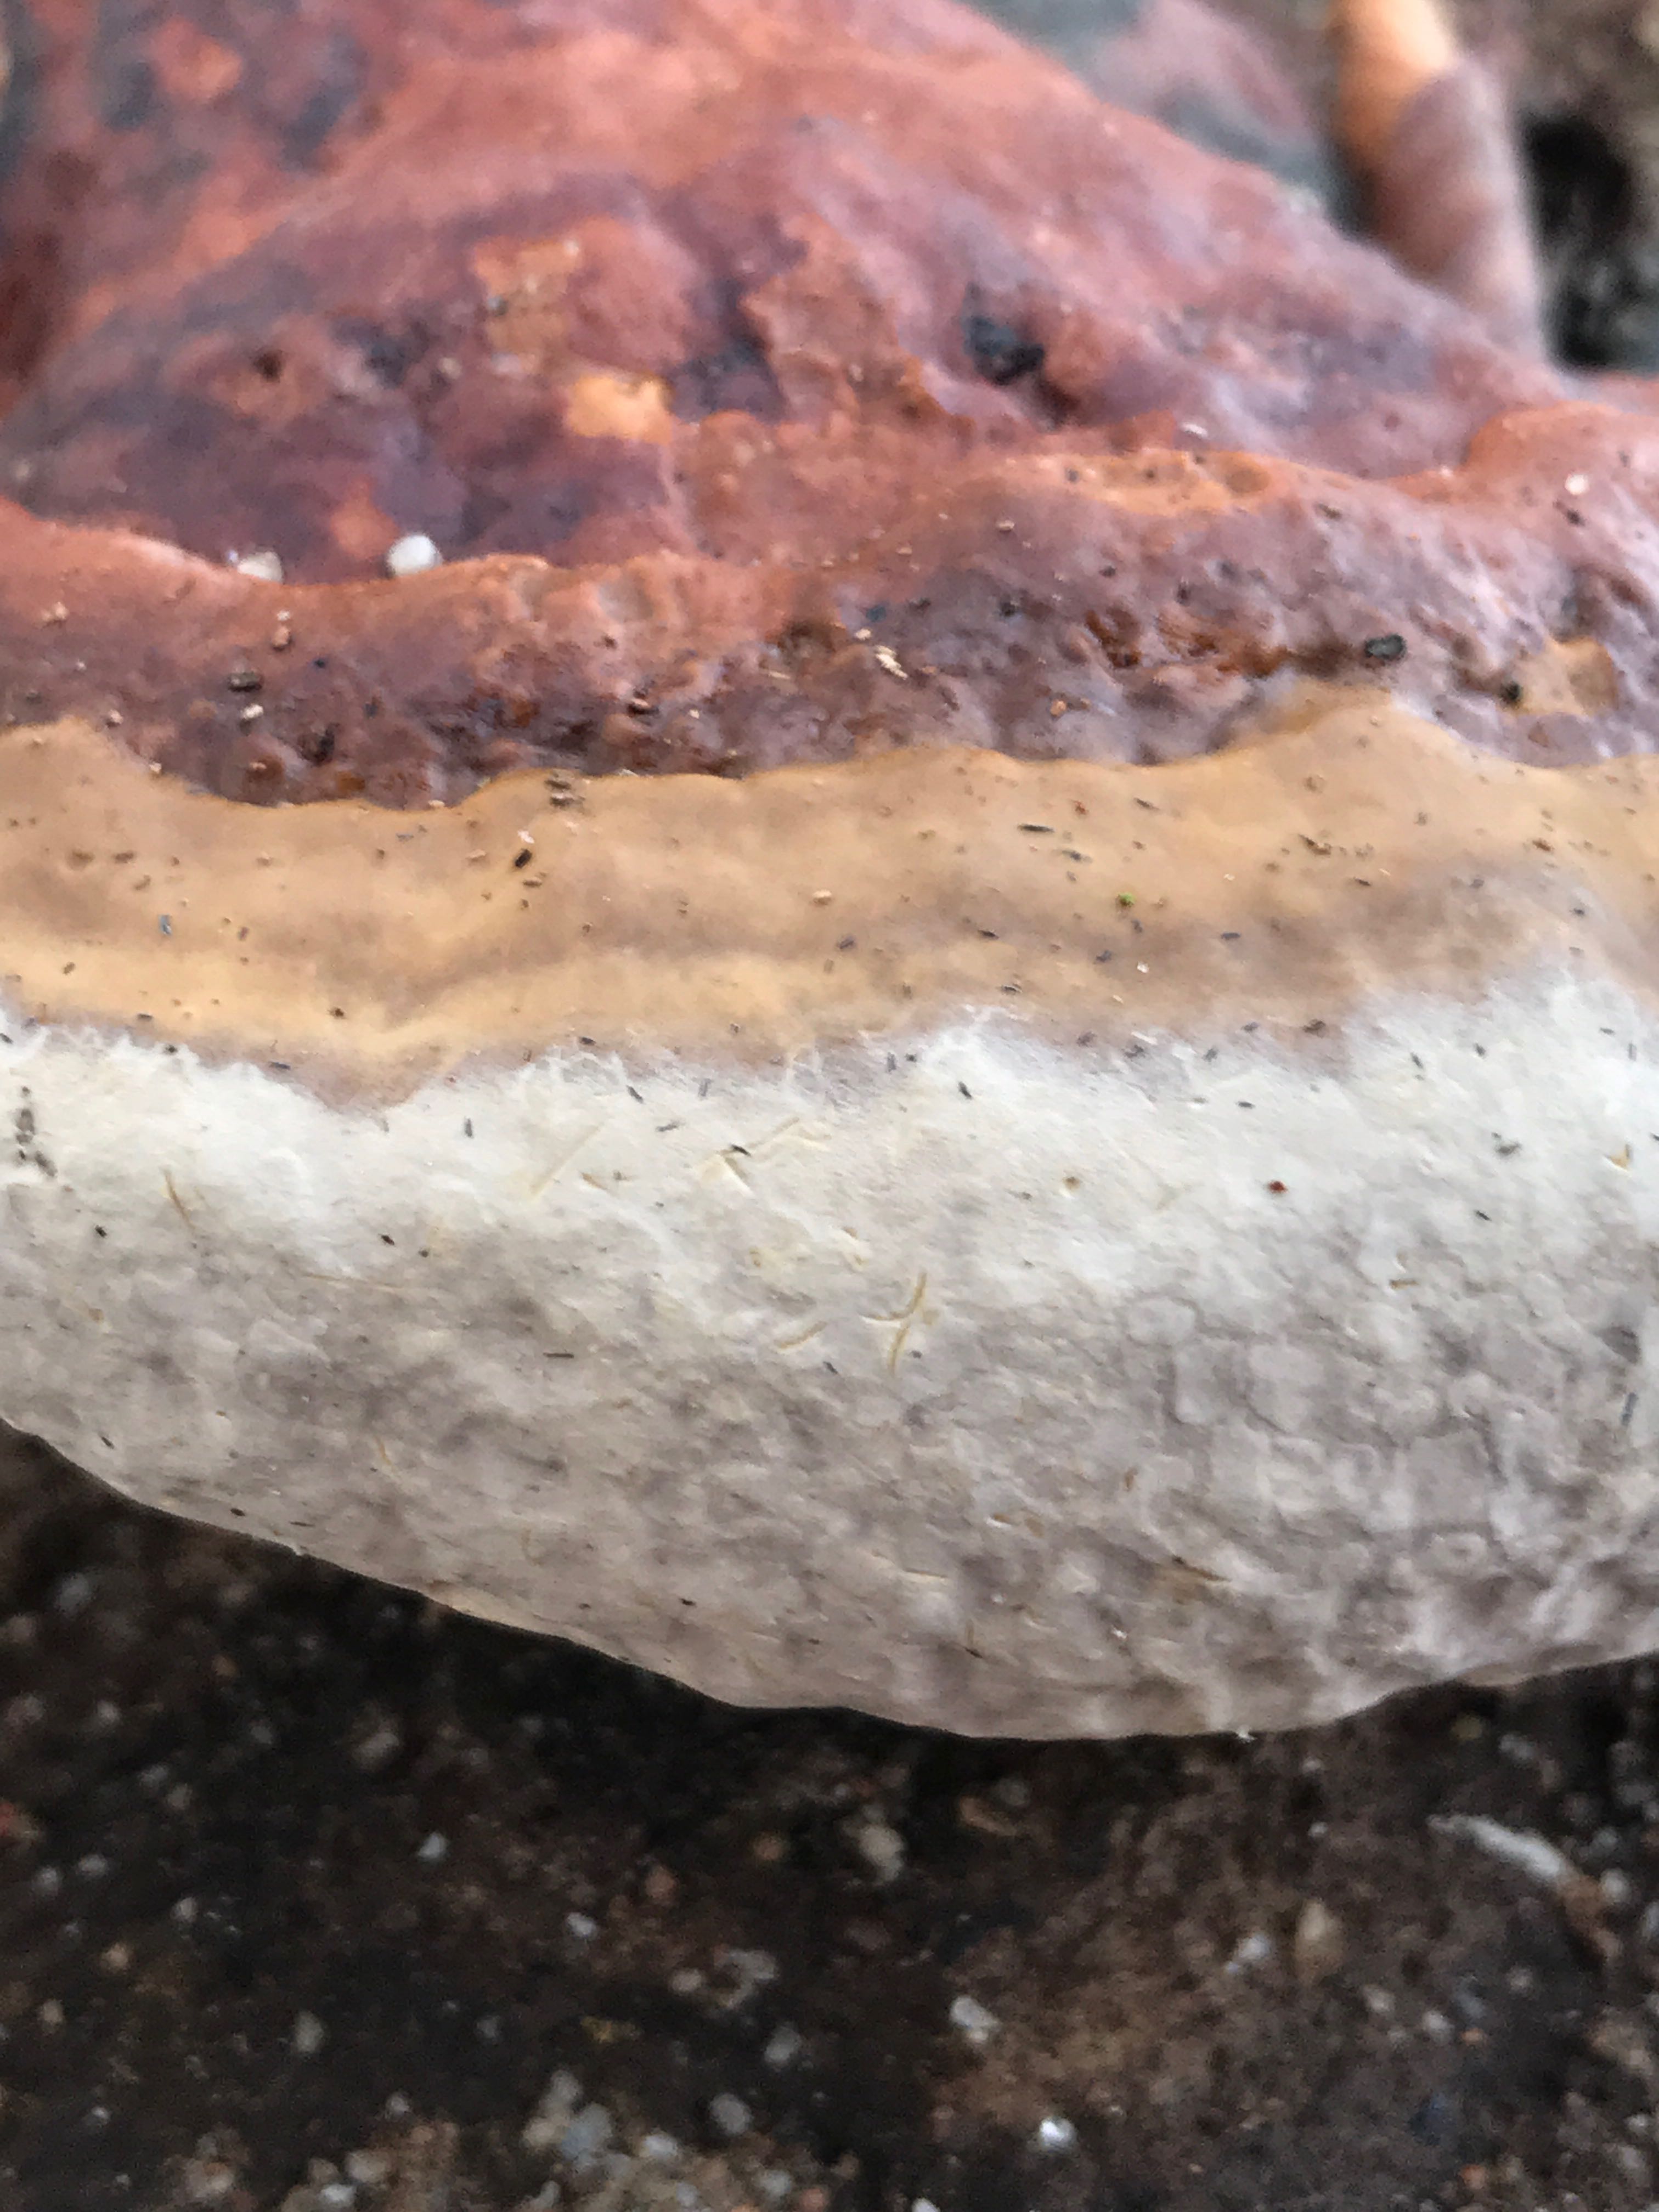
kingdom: Fungi
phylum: Basidiomycota
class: Agaricomycetes
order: Polyporales
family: Fomitopsidaceae
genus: Fomitopsis
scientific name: Fomitopsis pinicola
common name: randbæltet hovporesvamp
